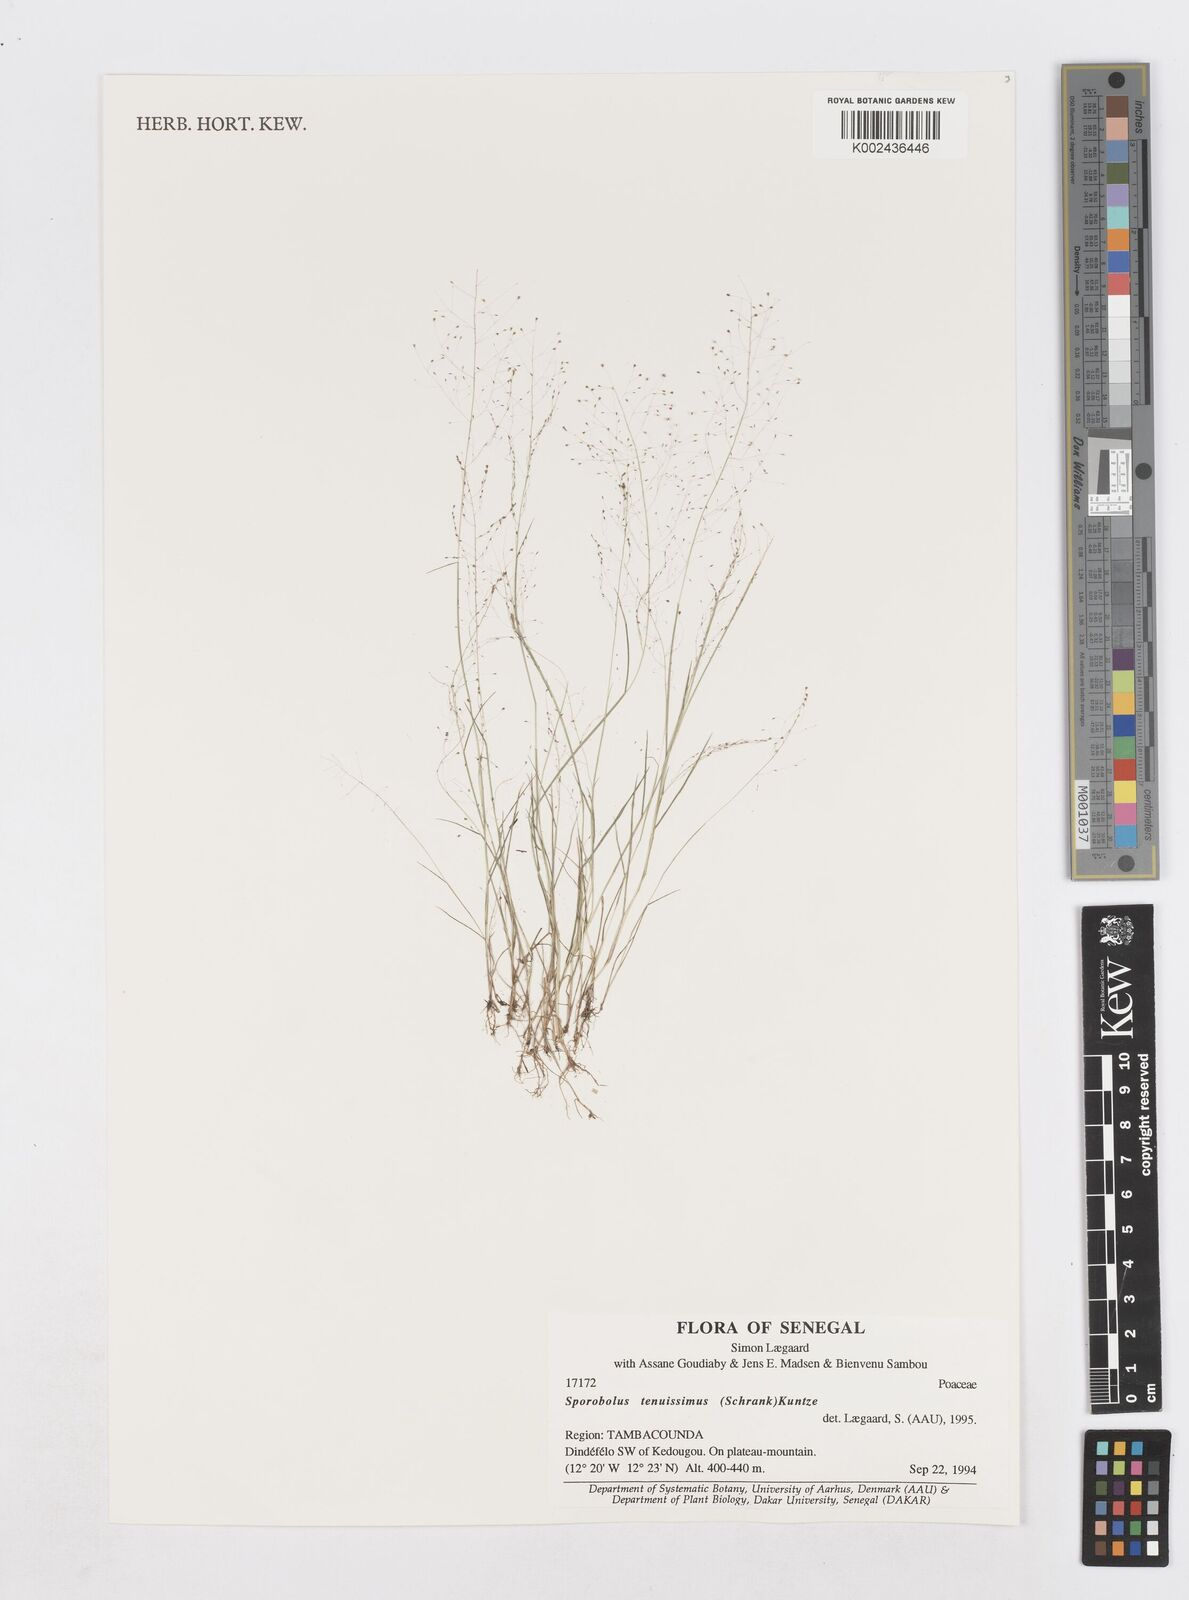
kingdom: Plantae
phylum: Tracheophyta
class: Liliopsida
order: Poales
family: Poaceae
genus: Sporobolus
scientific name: Sporobolus pectinellus
